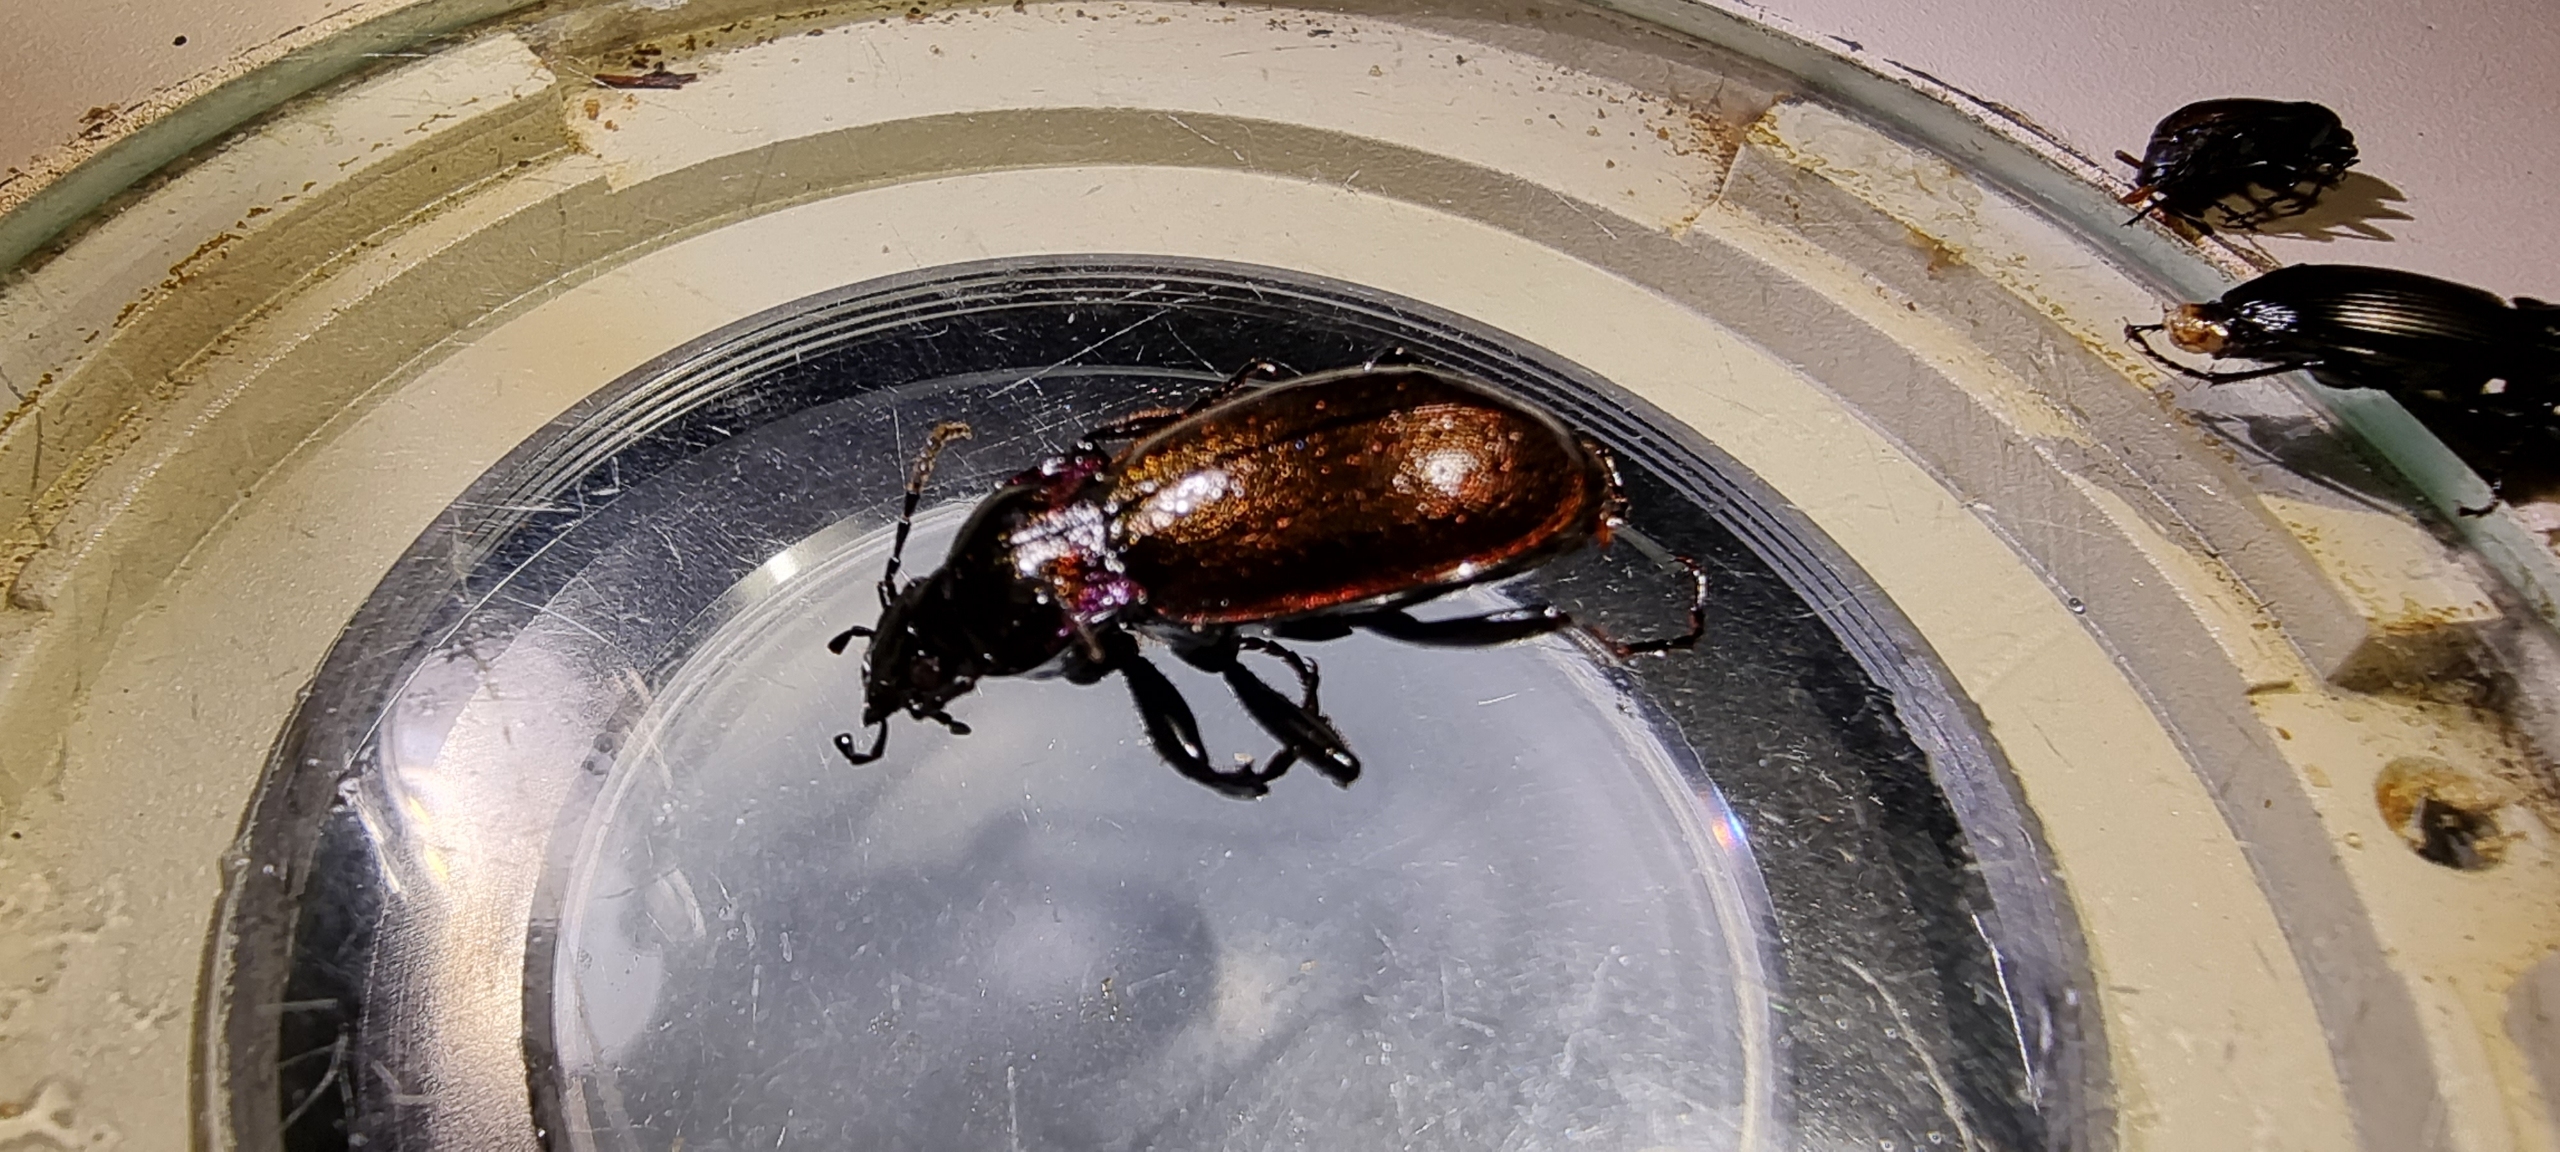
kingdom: Animalia
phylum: Arthropoda
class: Insecta
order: Coleoptera
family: Carabidae
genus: Carabus
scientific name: Carabus nemoralis
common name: Kratløber
